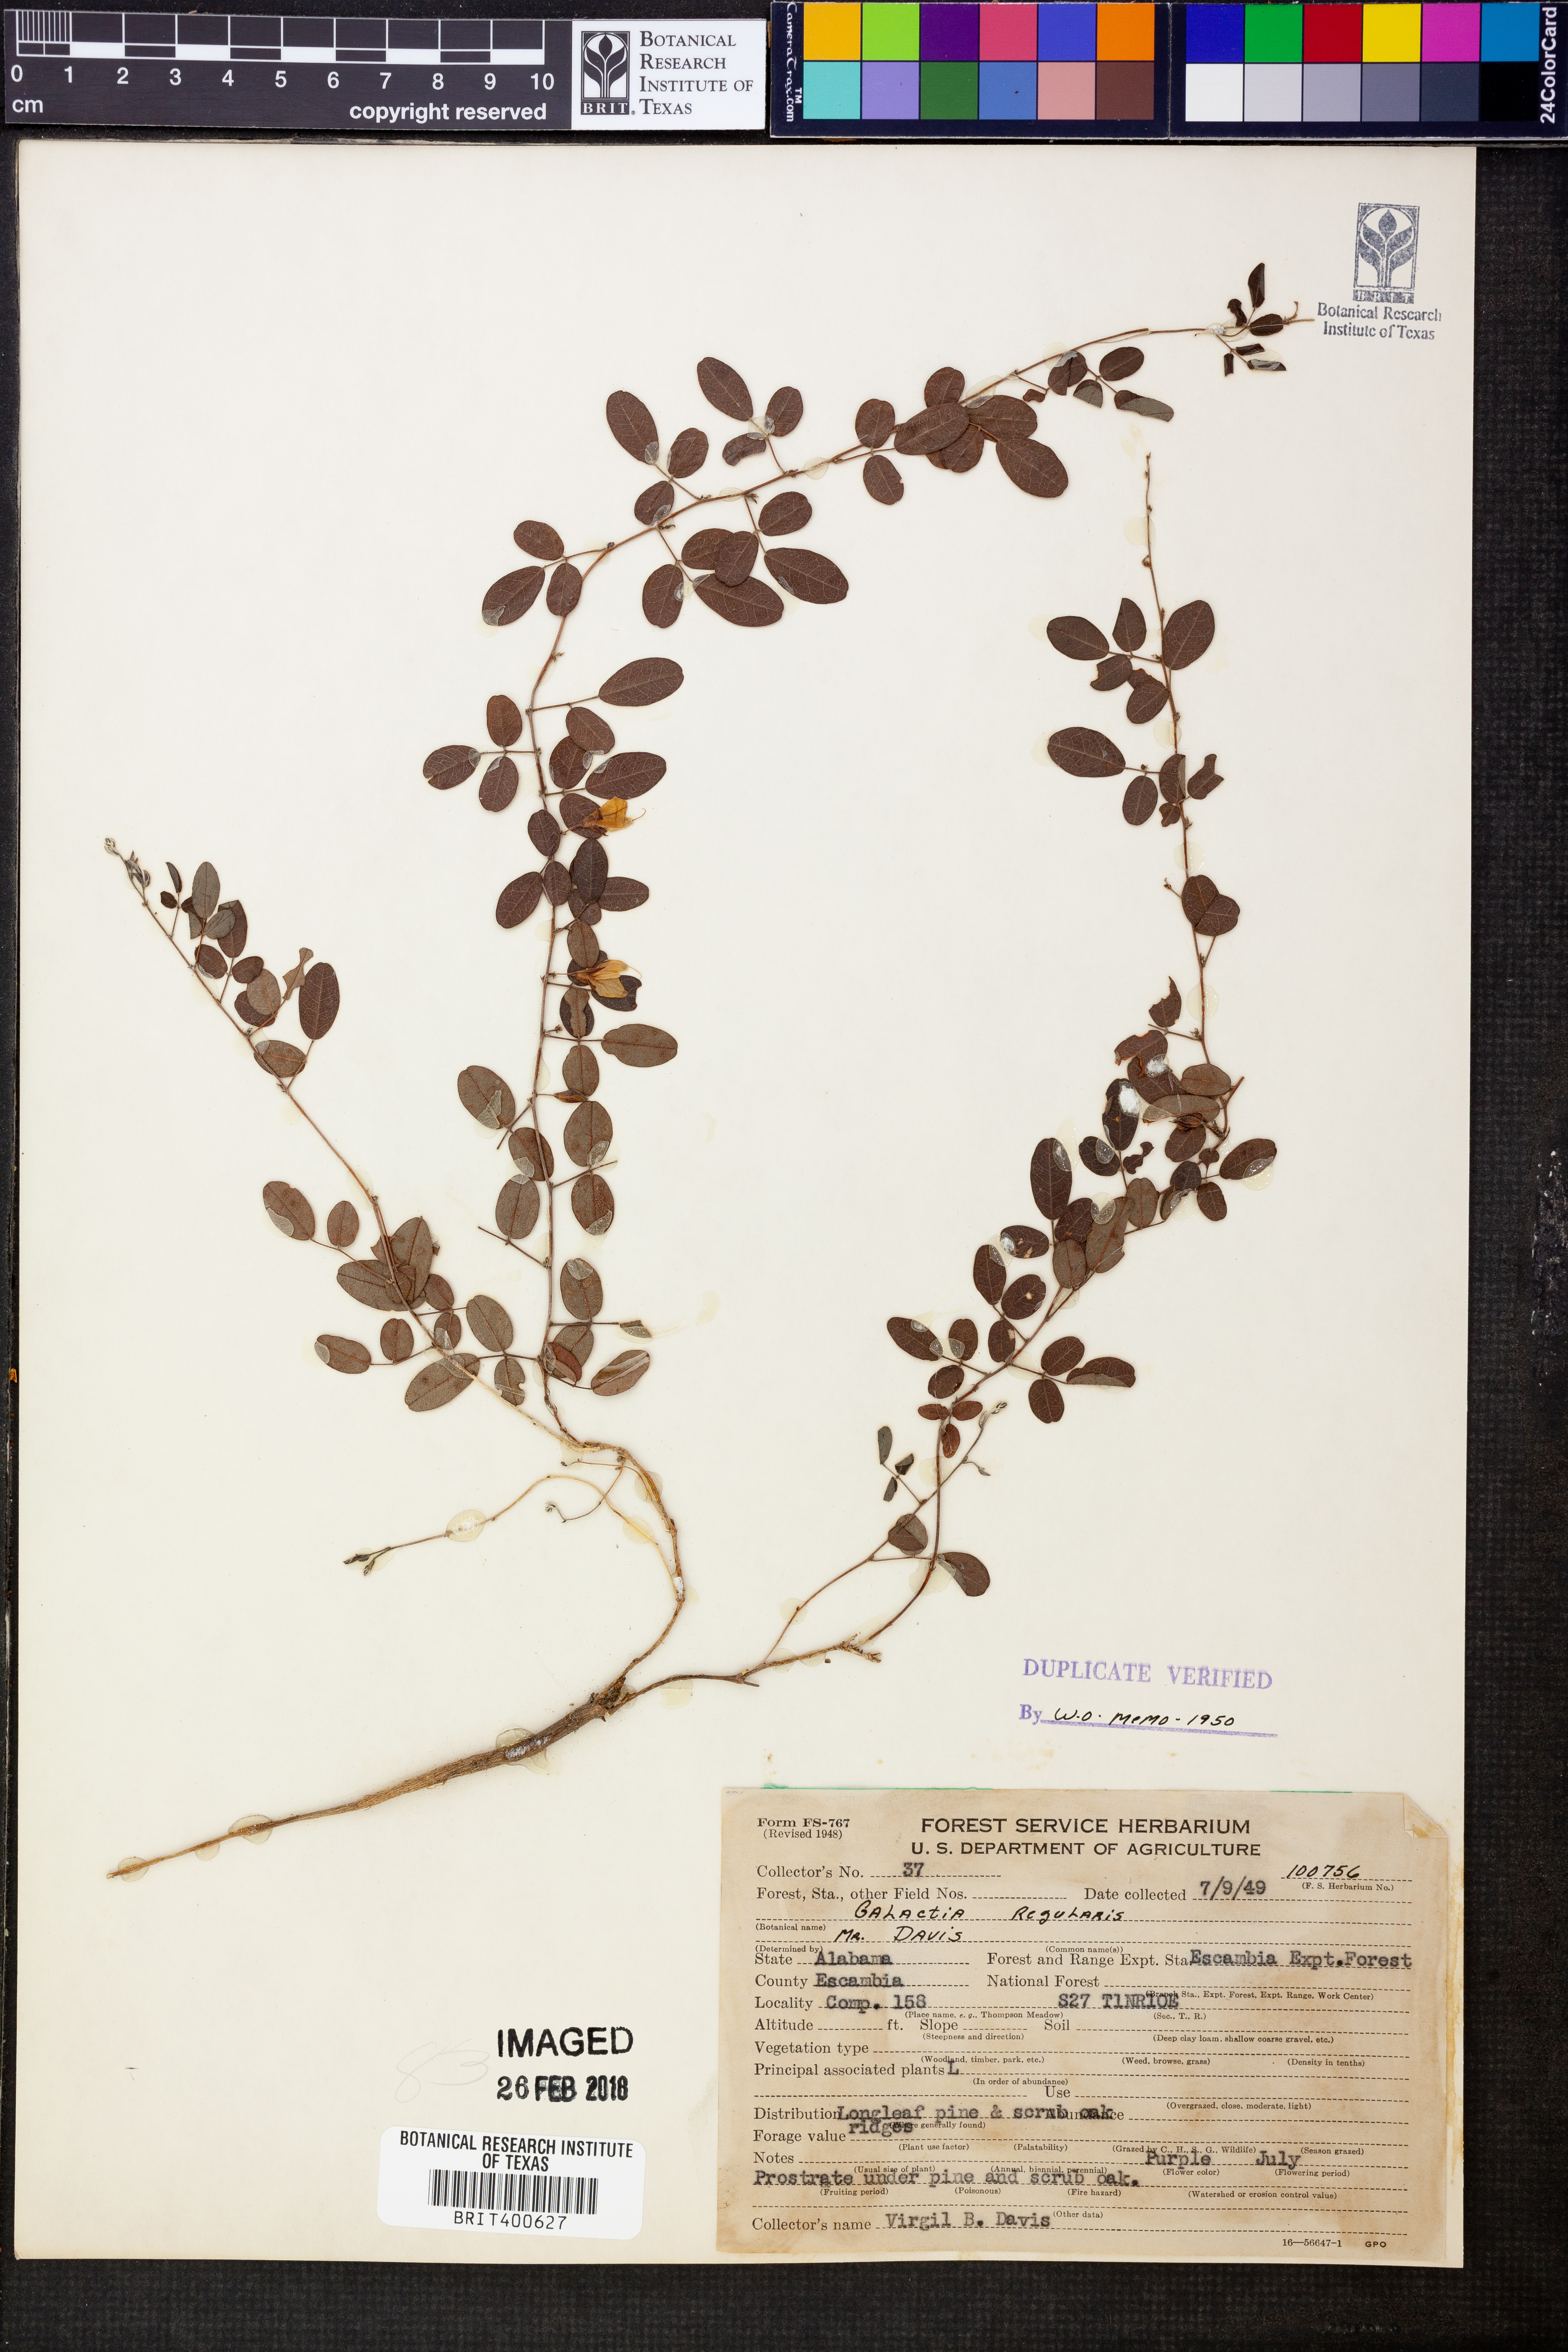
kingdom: Plantae
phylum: Tracheophyta
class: Magnoliopsida
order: Fabales
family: Fabaceae
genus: Galactia
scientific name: Galactia regularis
